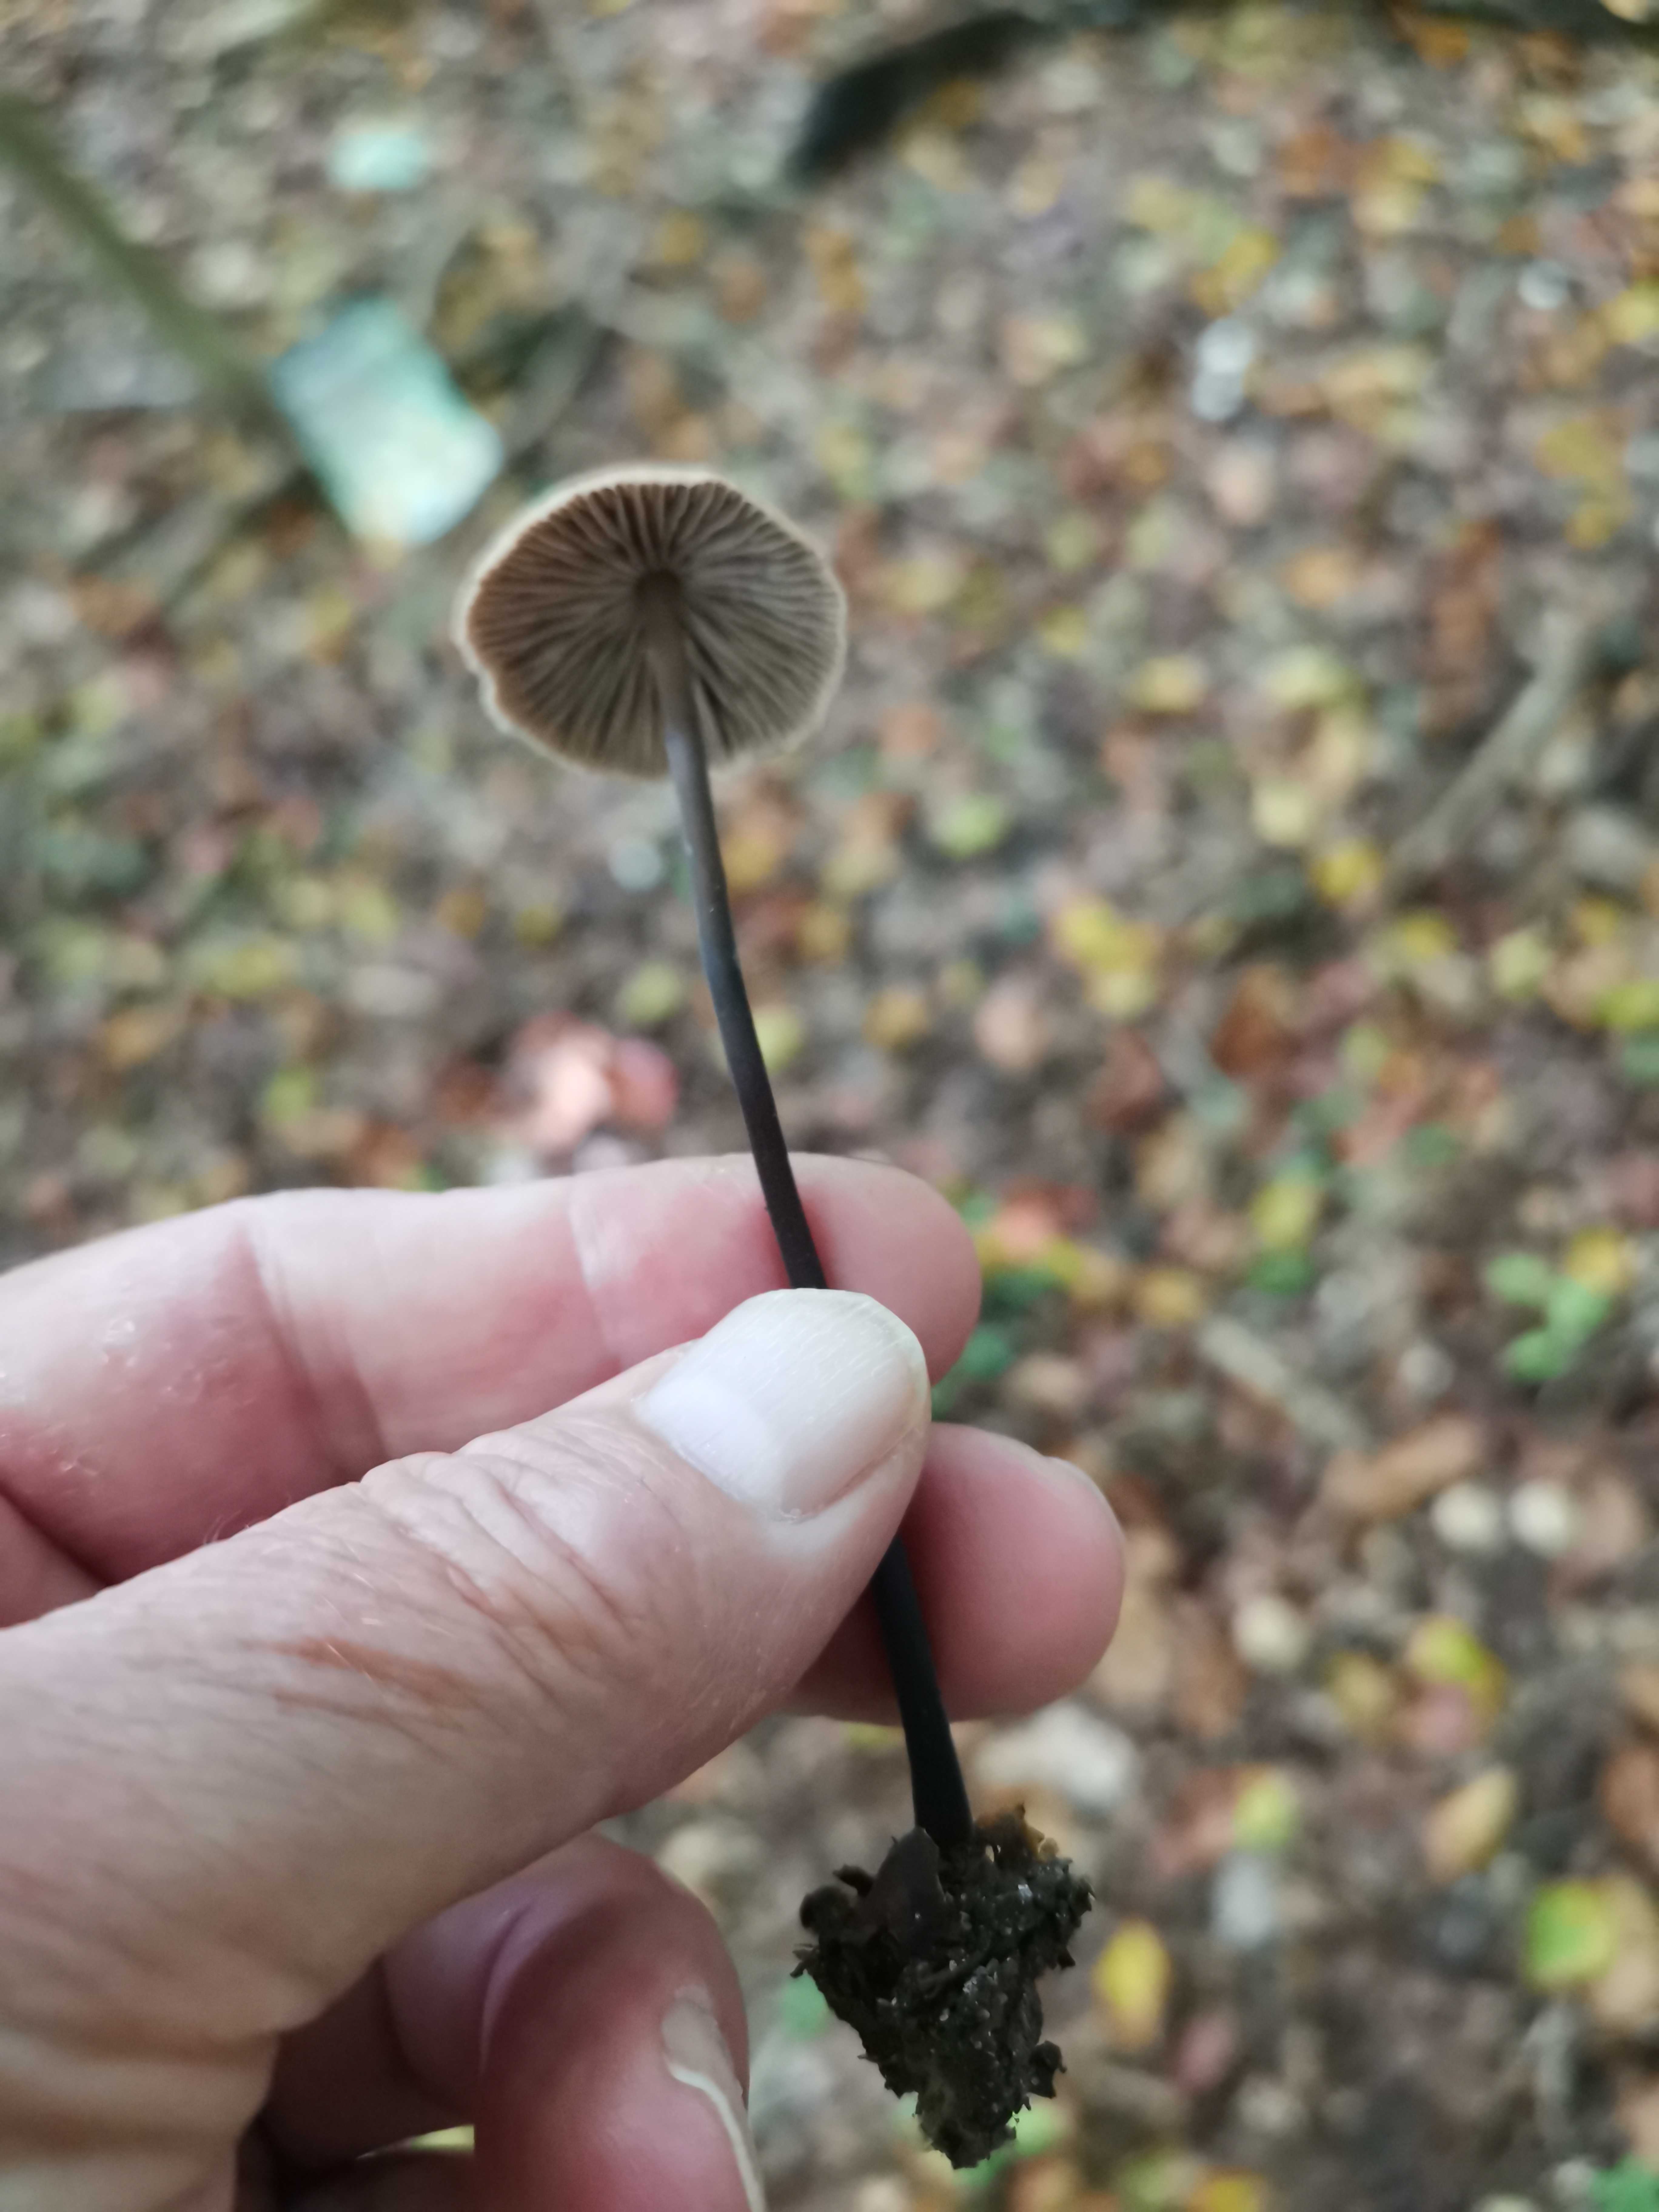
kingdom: Fungi
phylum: Basidiomycota
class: Agaricomycetes
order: Agaricales
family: Omphalotaceae
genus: Mycetinis
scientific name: Mycetinis alliaceus
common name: stor løghat
